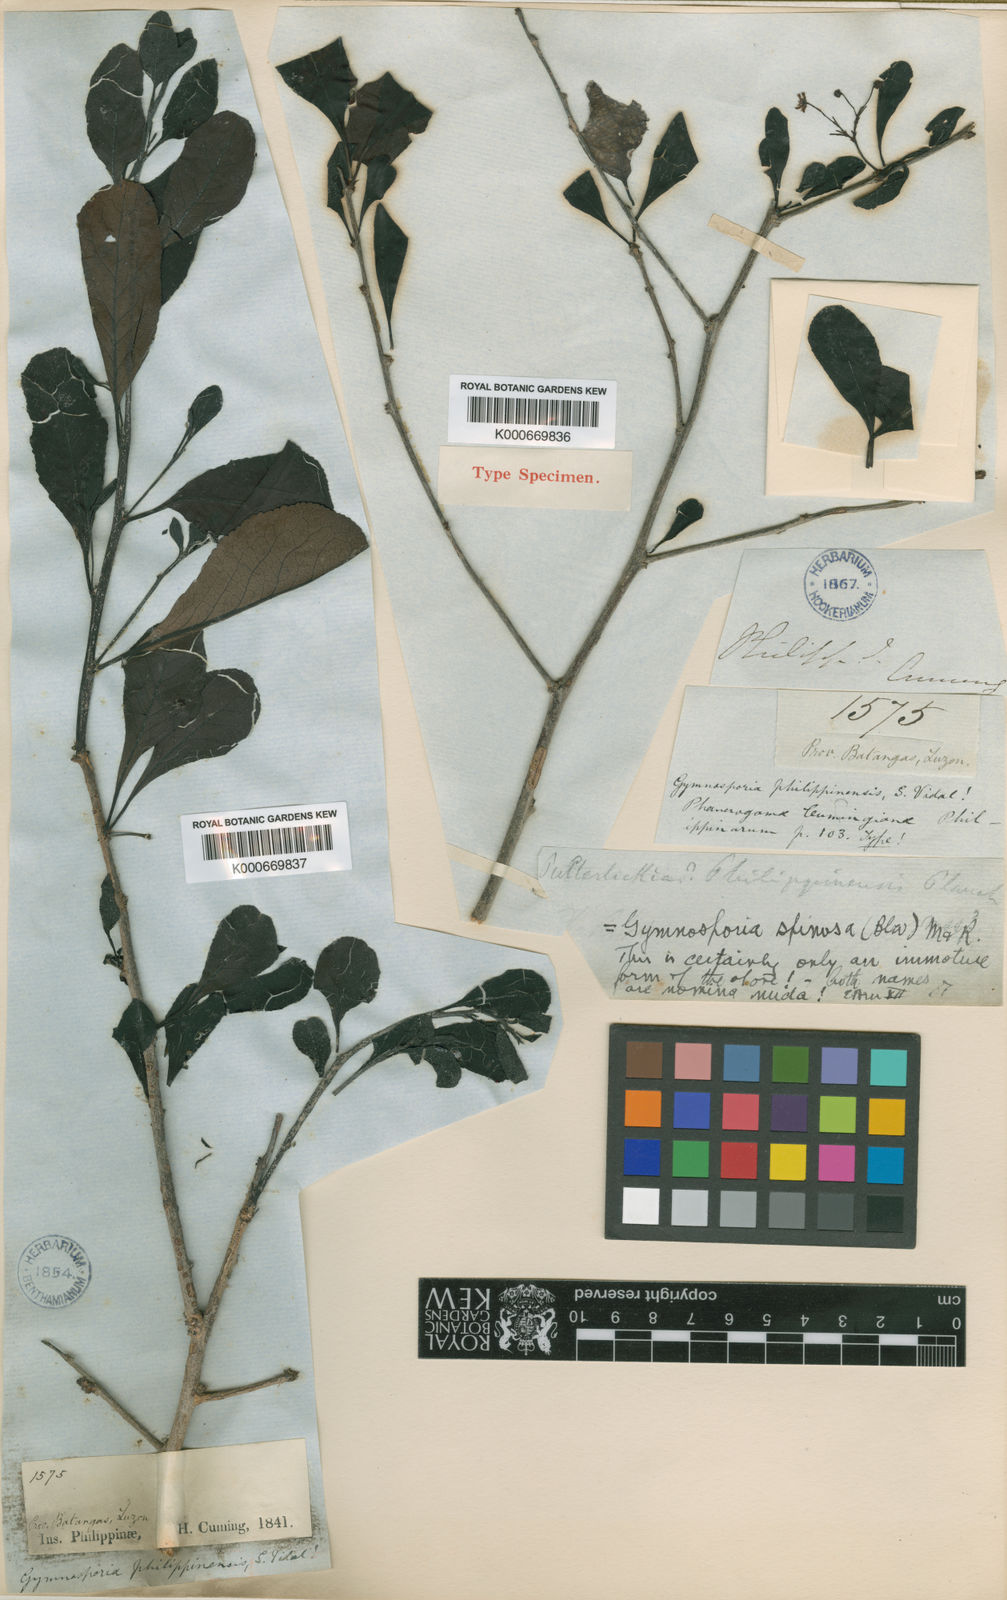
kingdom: Plantae
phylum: Tracheophyta
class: Magnoliopsida
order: Celastrales
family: Celastraceae
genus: Gymnosporia
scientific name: Gymnosporia emarginata
